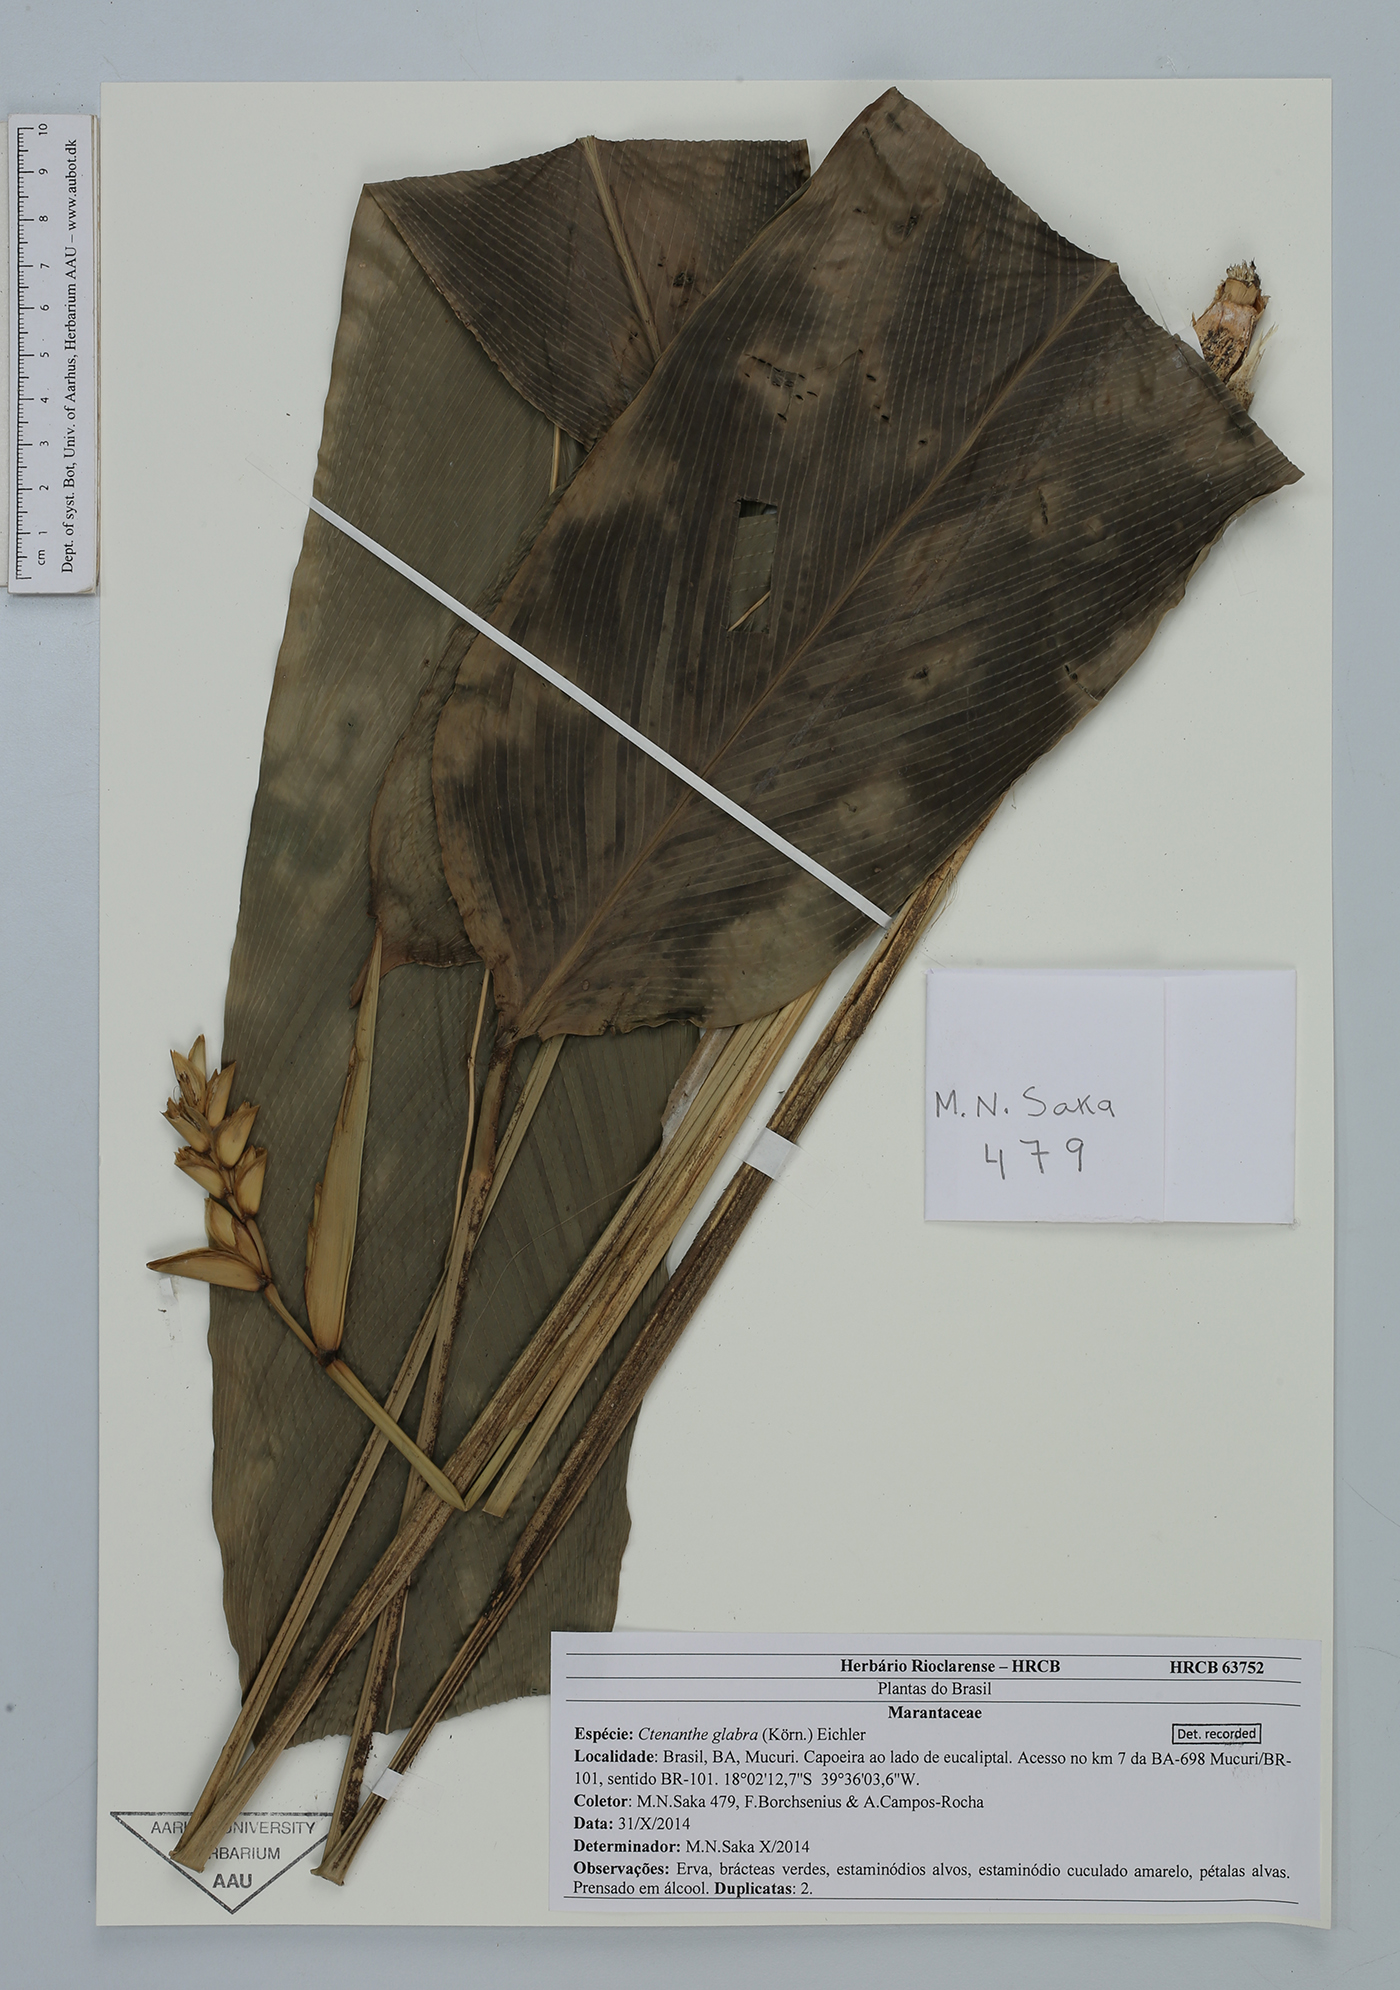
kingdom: Plantae
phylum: Tracheophyta
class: Liliopsida
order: Zingiberales
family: Marantaceae
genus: Ctenanthe
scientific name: Ctenanthe glabra
